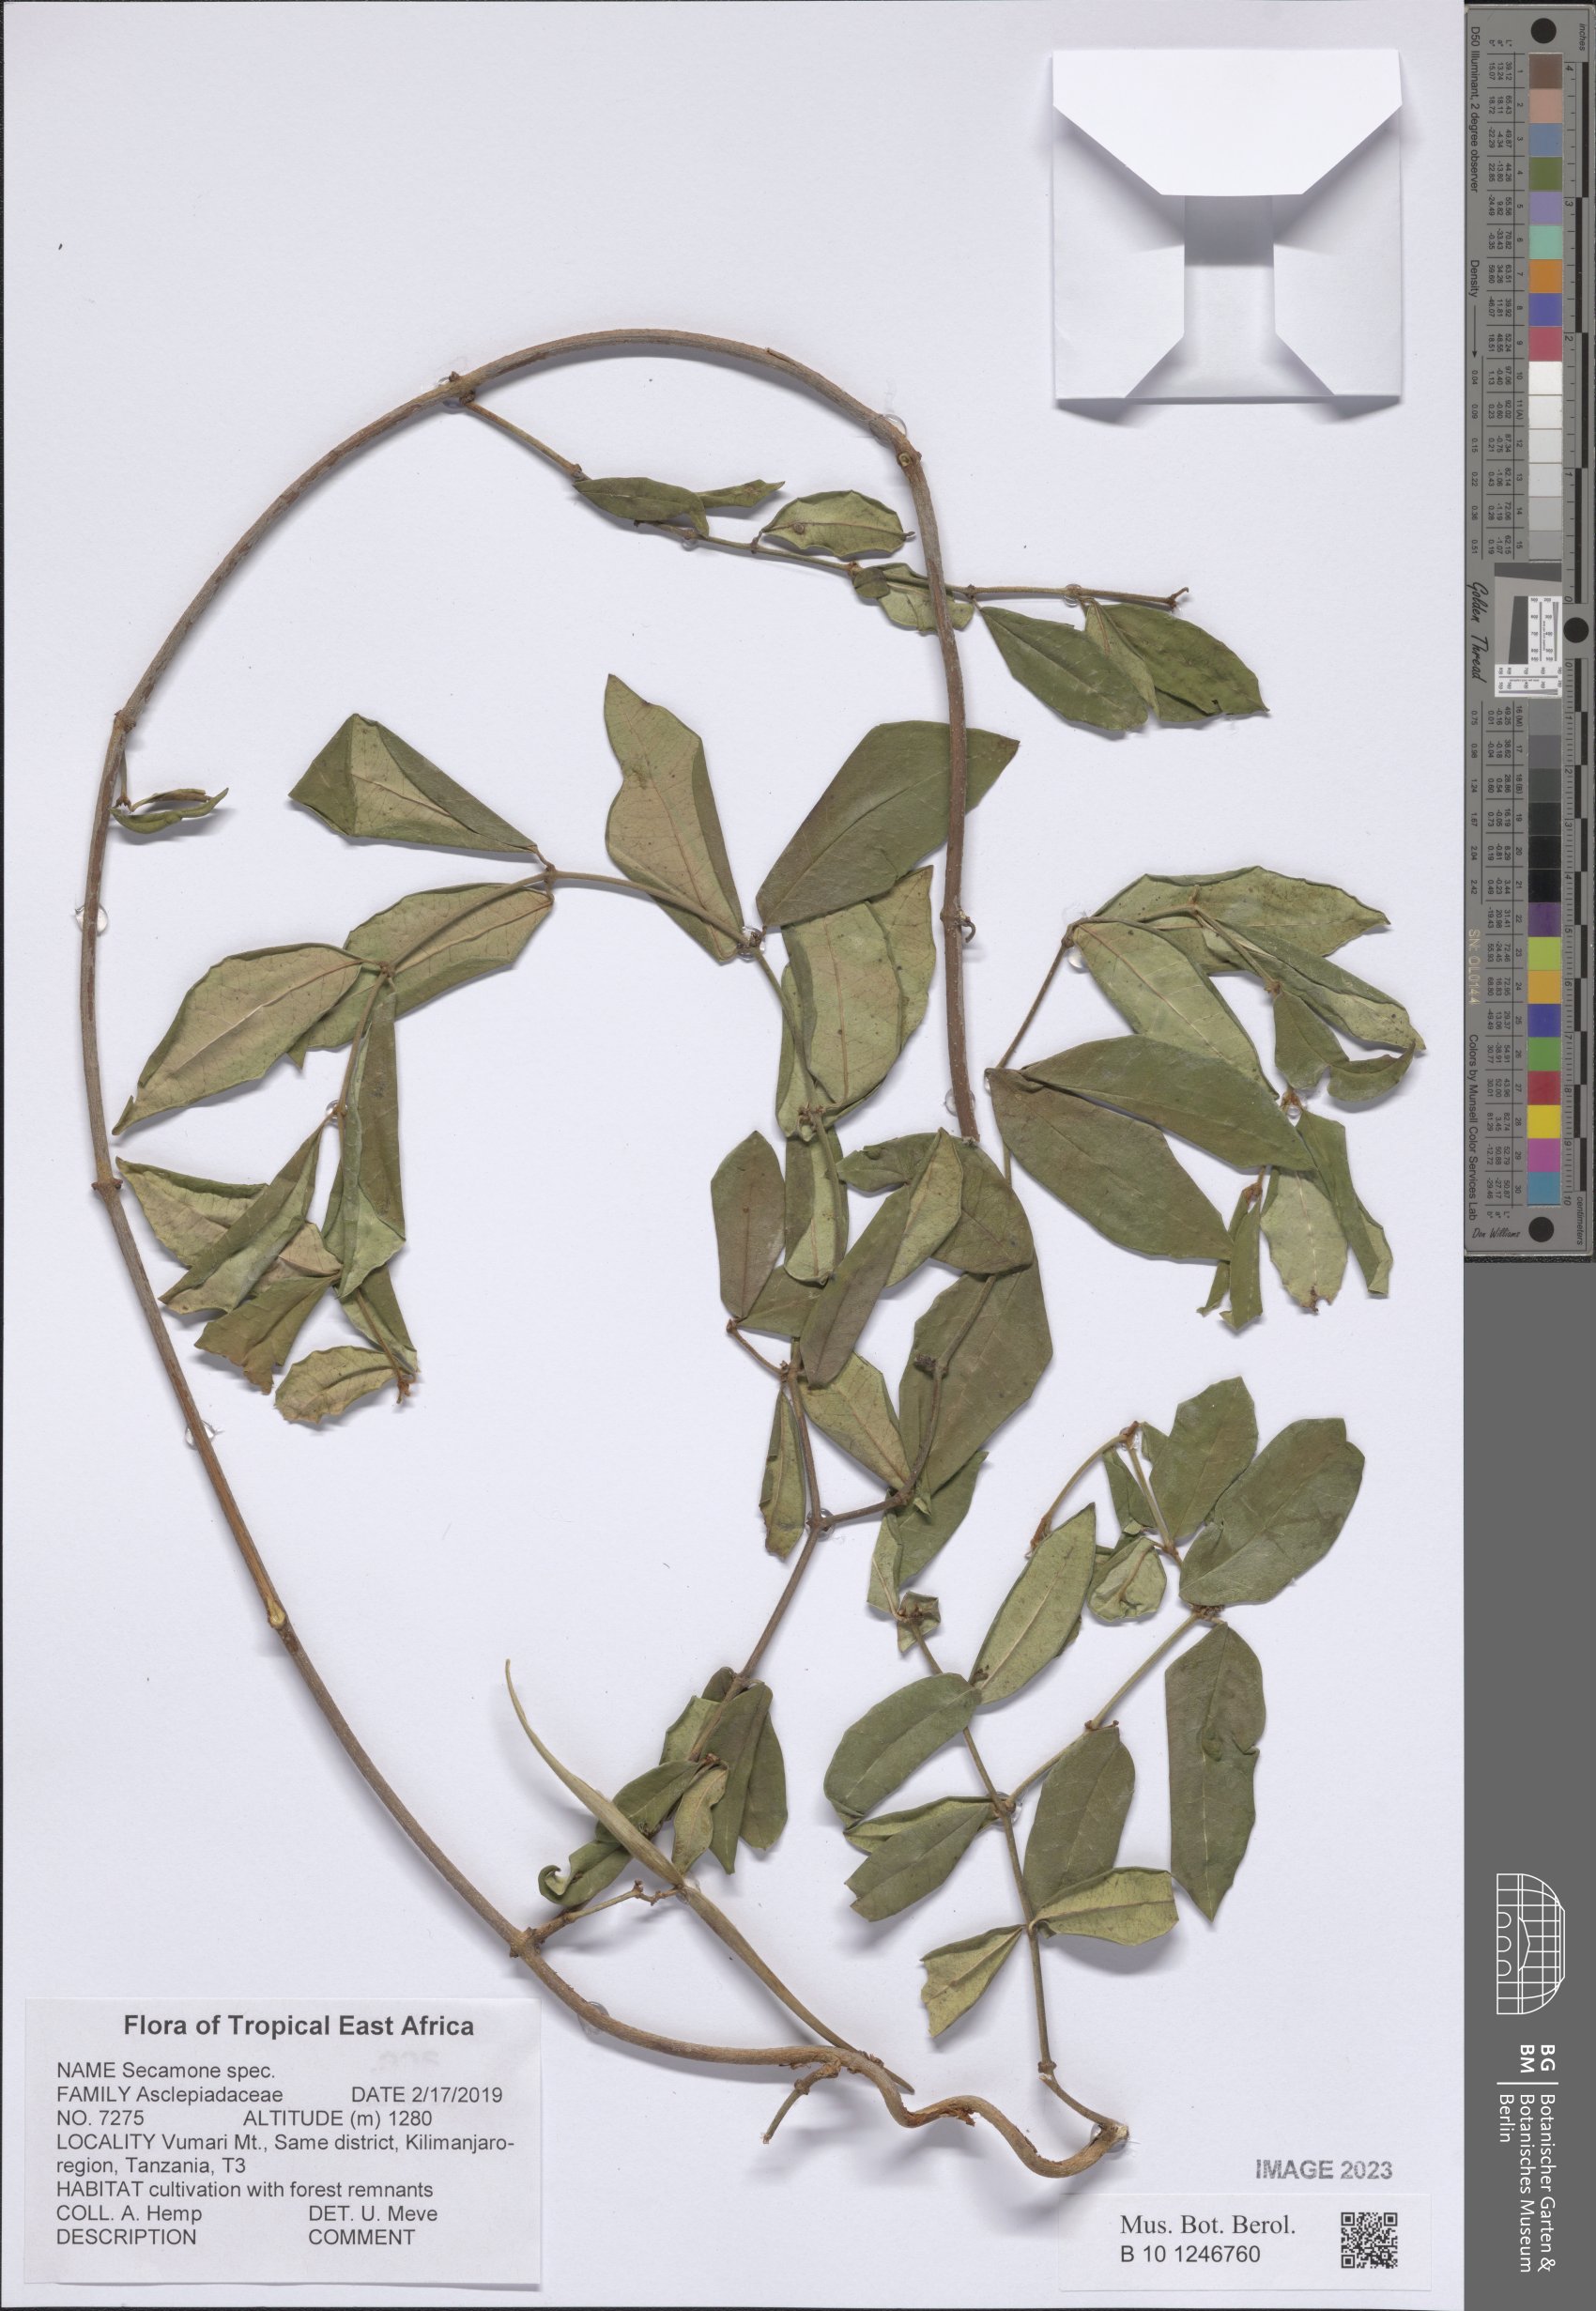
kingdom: Plantae
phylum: Tracheophyta
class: Magnoliopsida
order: Gentianales
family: Apocynaceae
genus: Secamone
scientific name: Secamone
